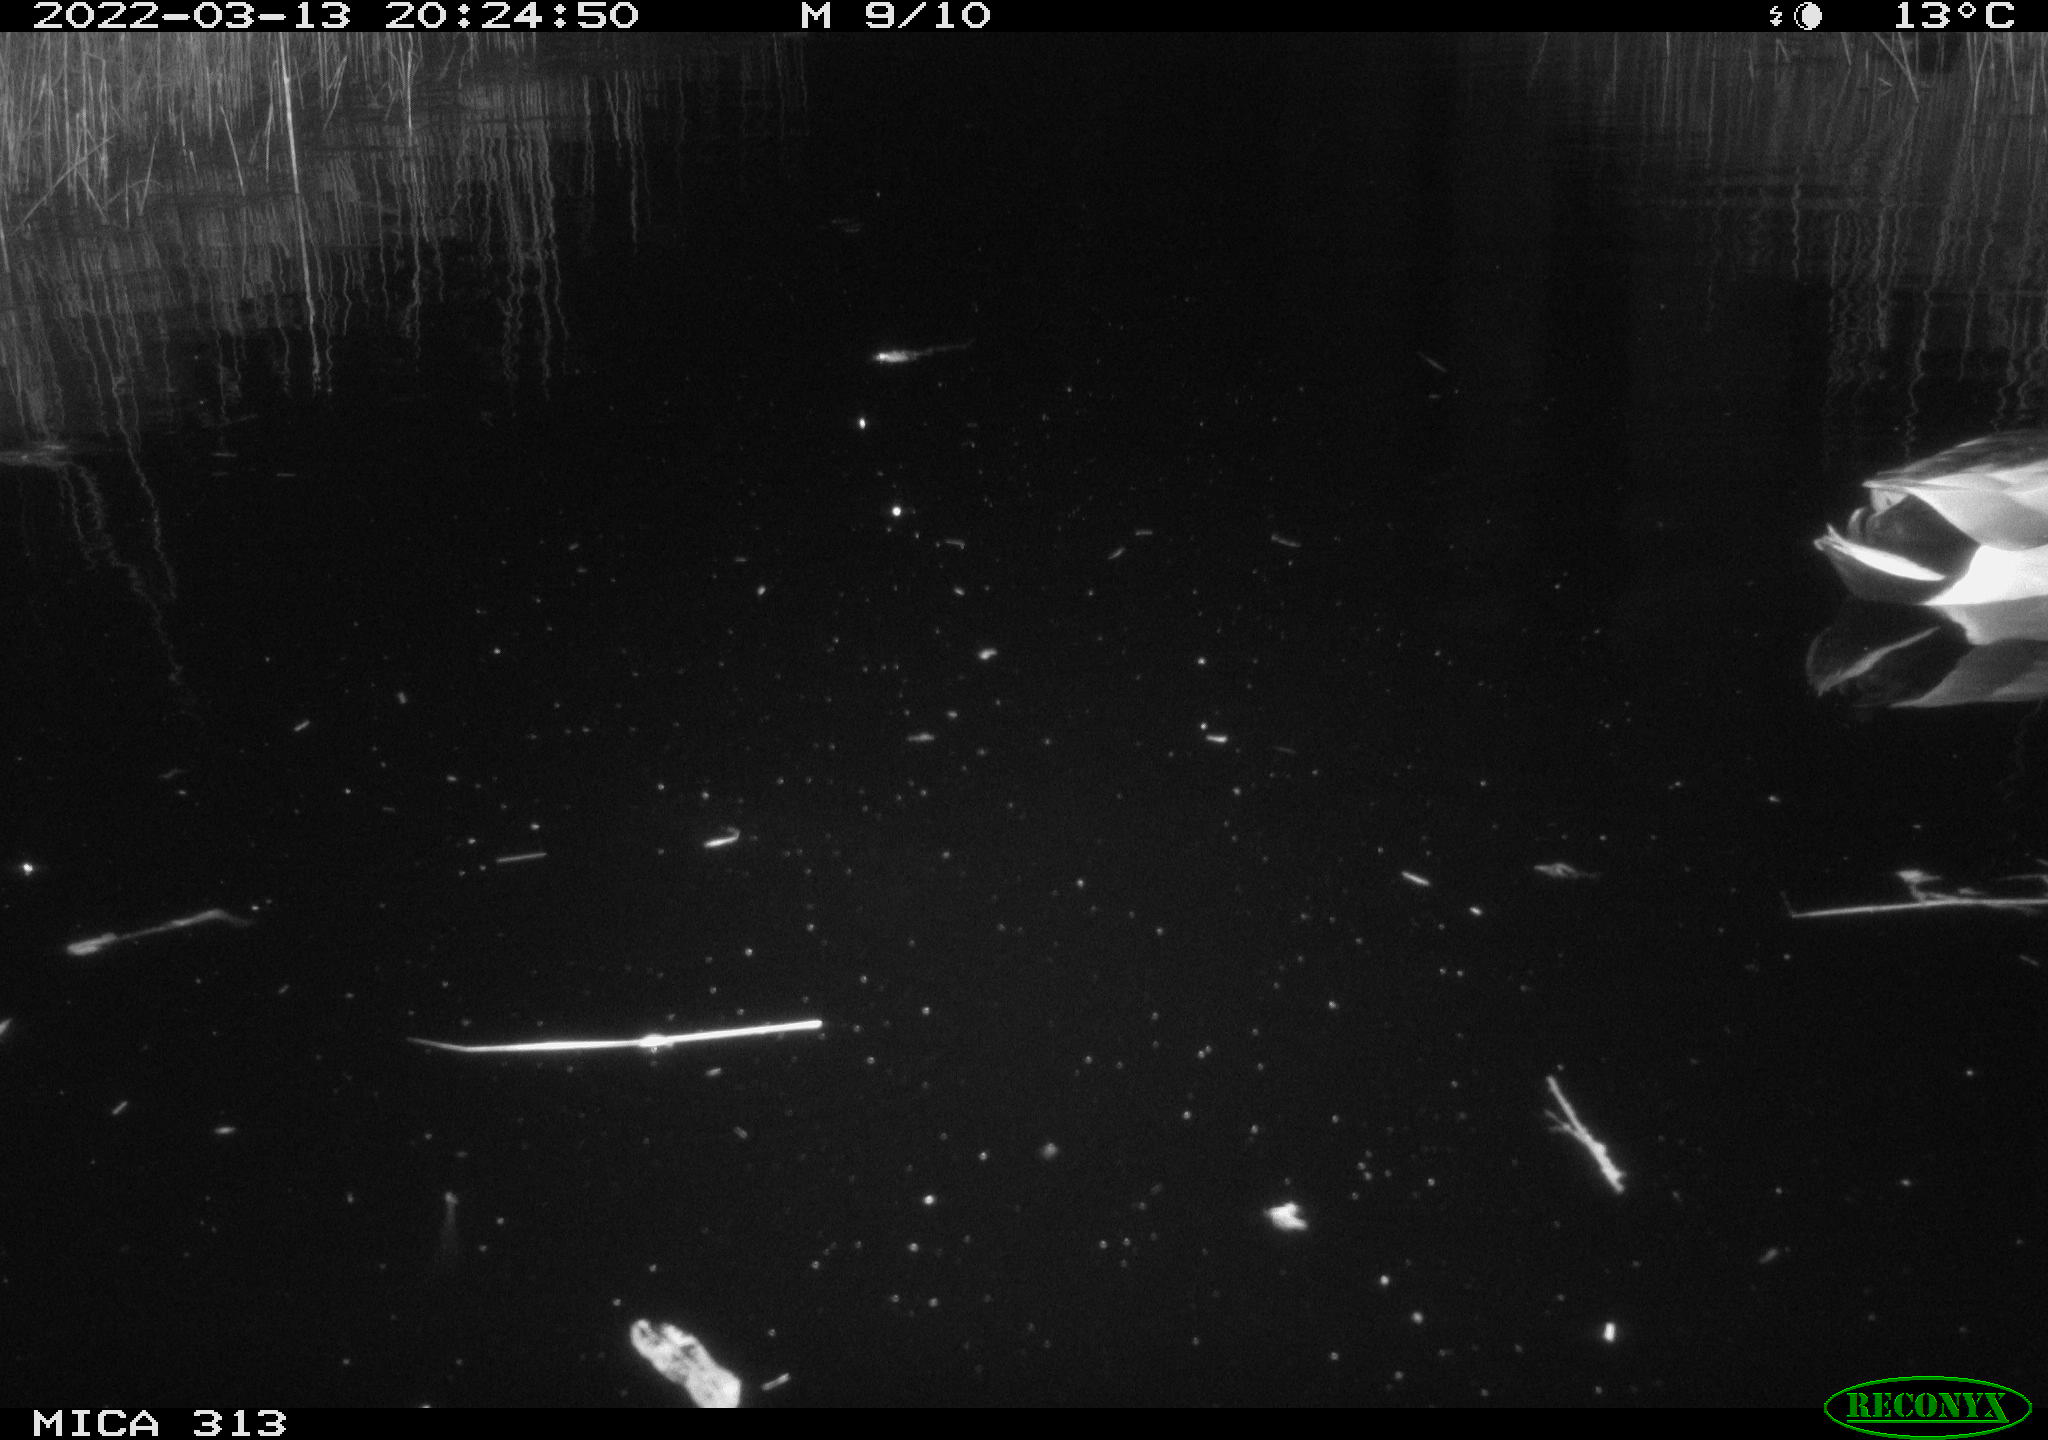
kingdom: Animalia
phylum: Chordata
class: Aves
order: Anseriformes
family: Anatidae
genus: Anas
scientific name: Anas platyrhynchos
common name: Mallard
